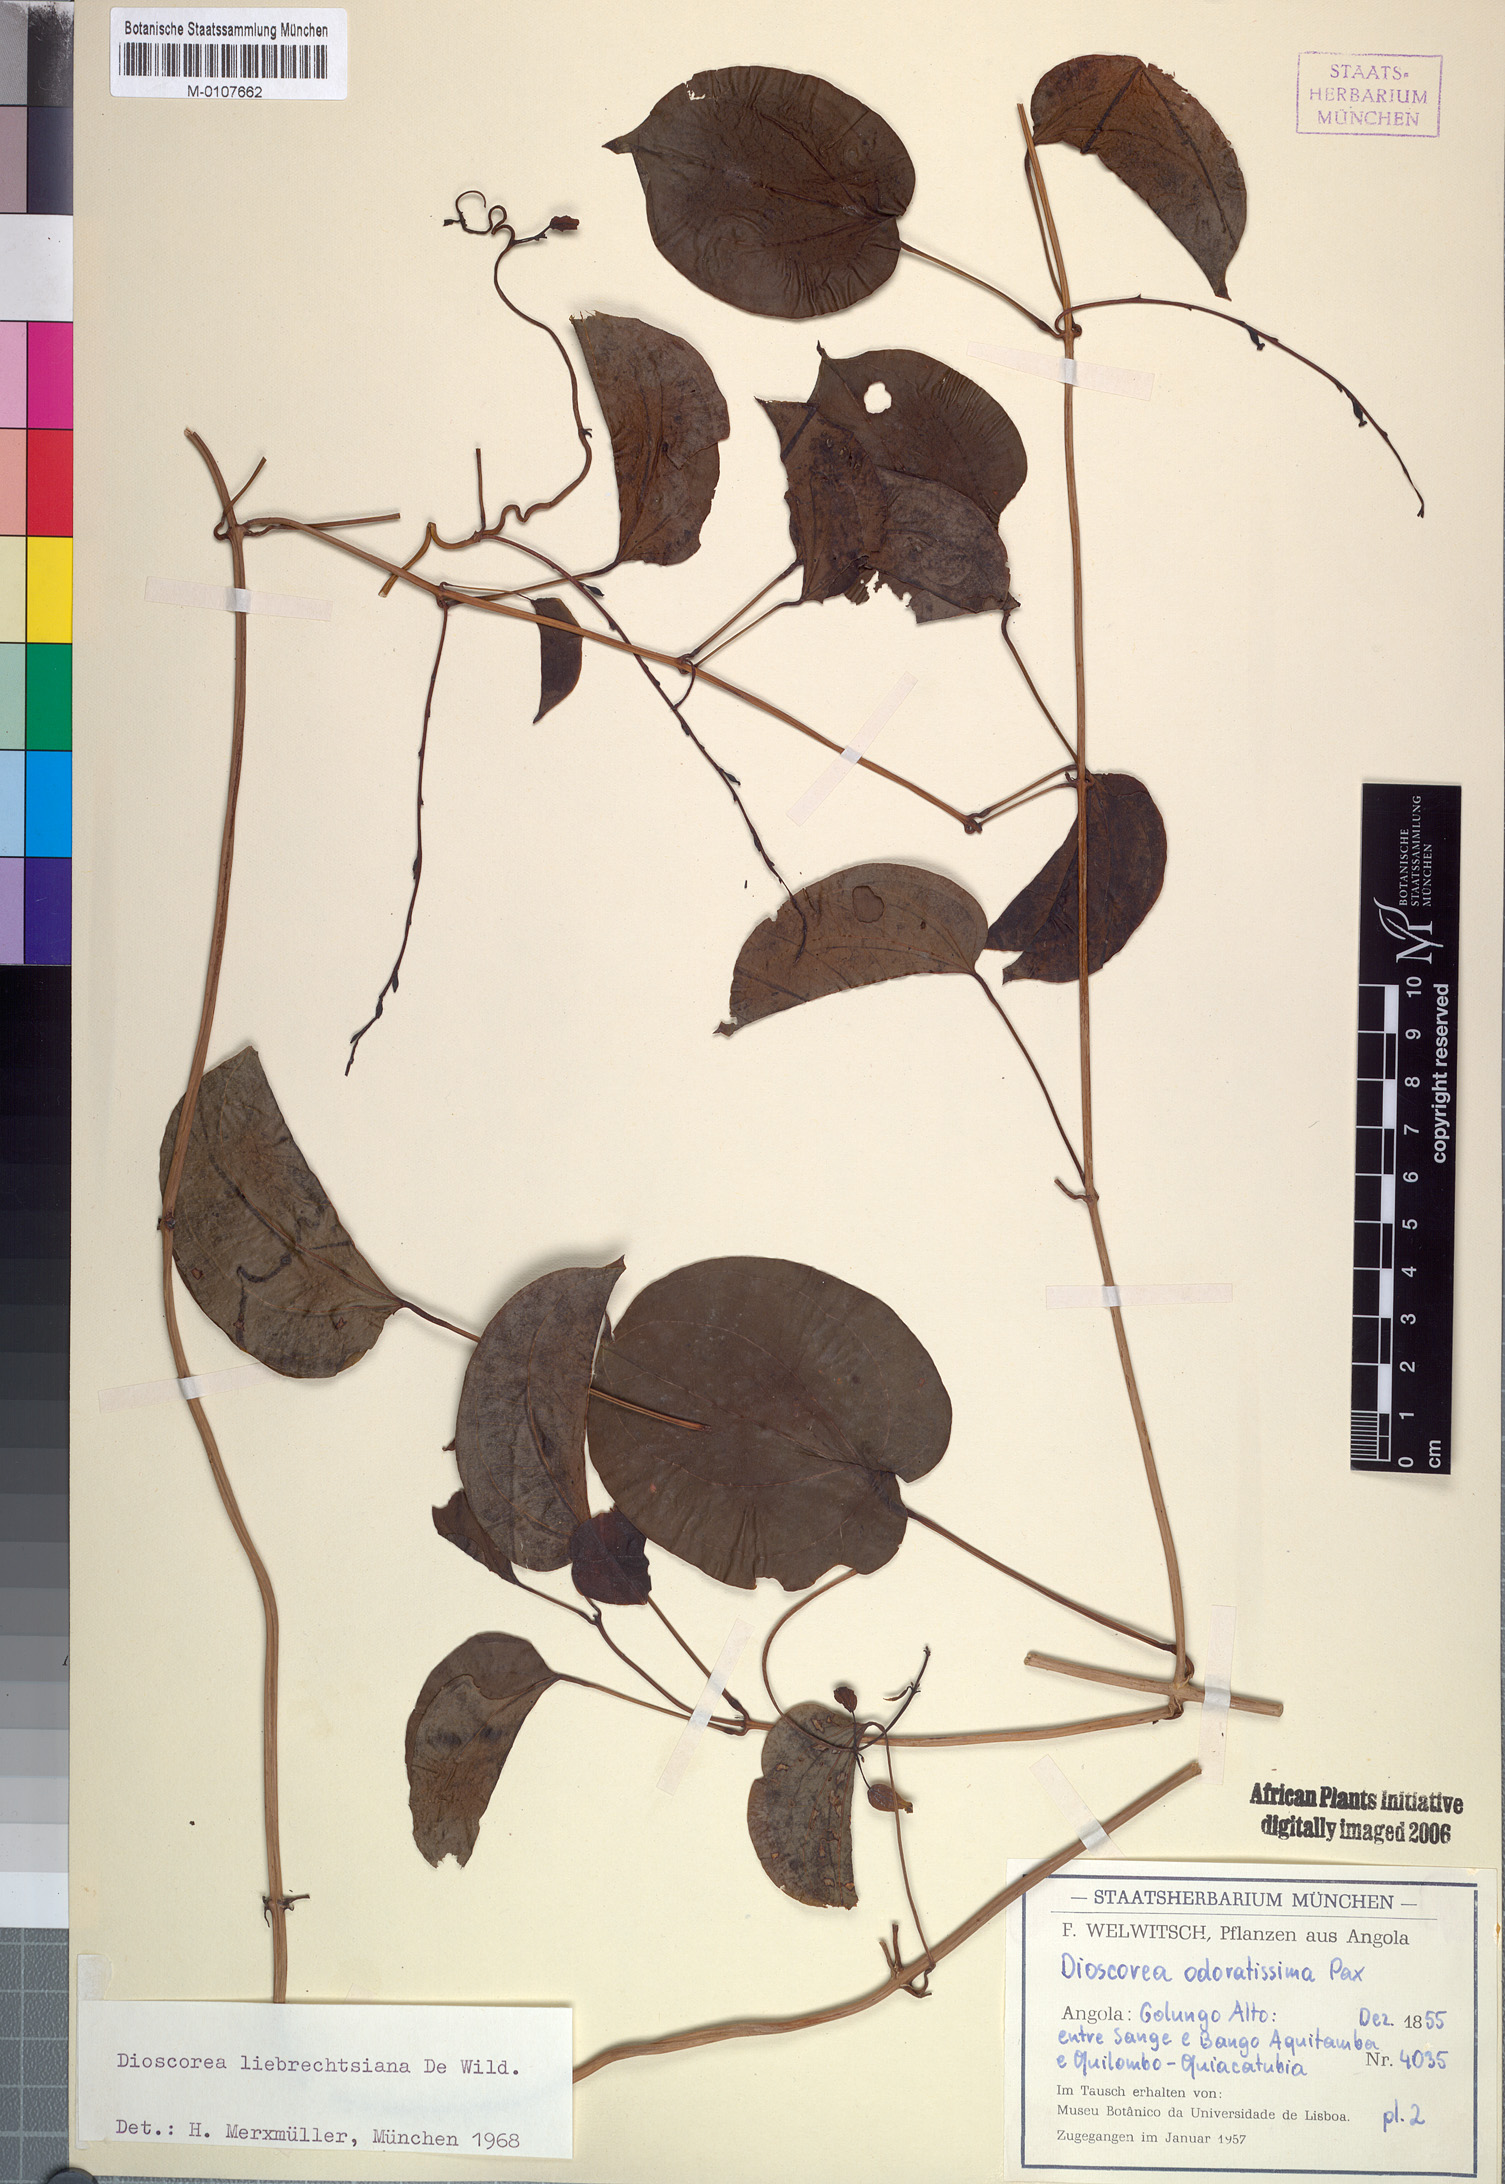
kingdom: Plantae
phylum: Tracheophyta
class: Liliopsida
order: Dioscoreales
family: Dioscoreaceae
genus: Dioscorea
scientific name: Dioscorea praehensilis
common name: Bush yam
